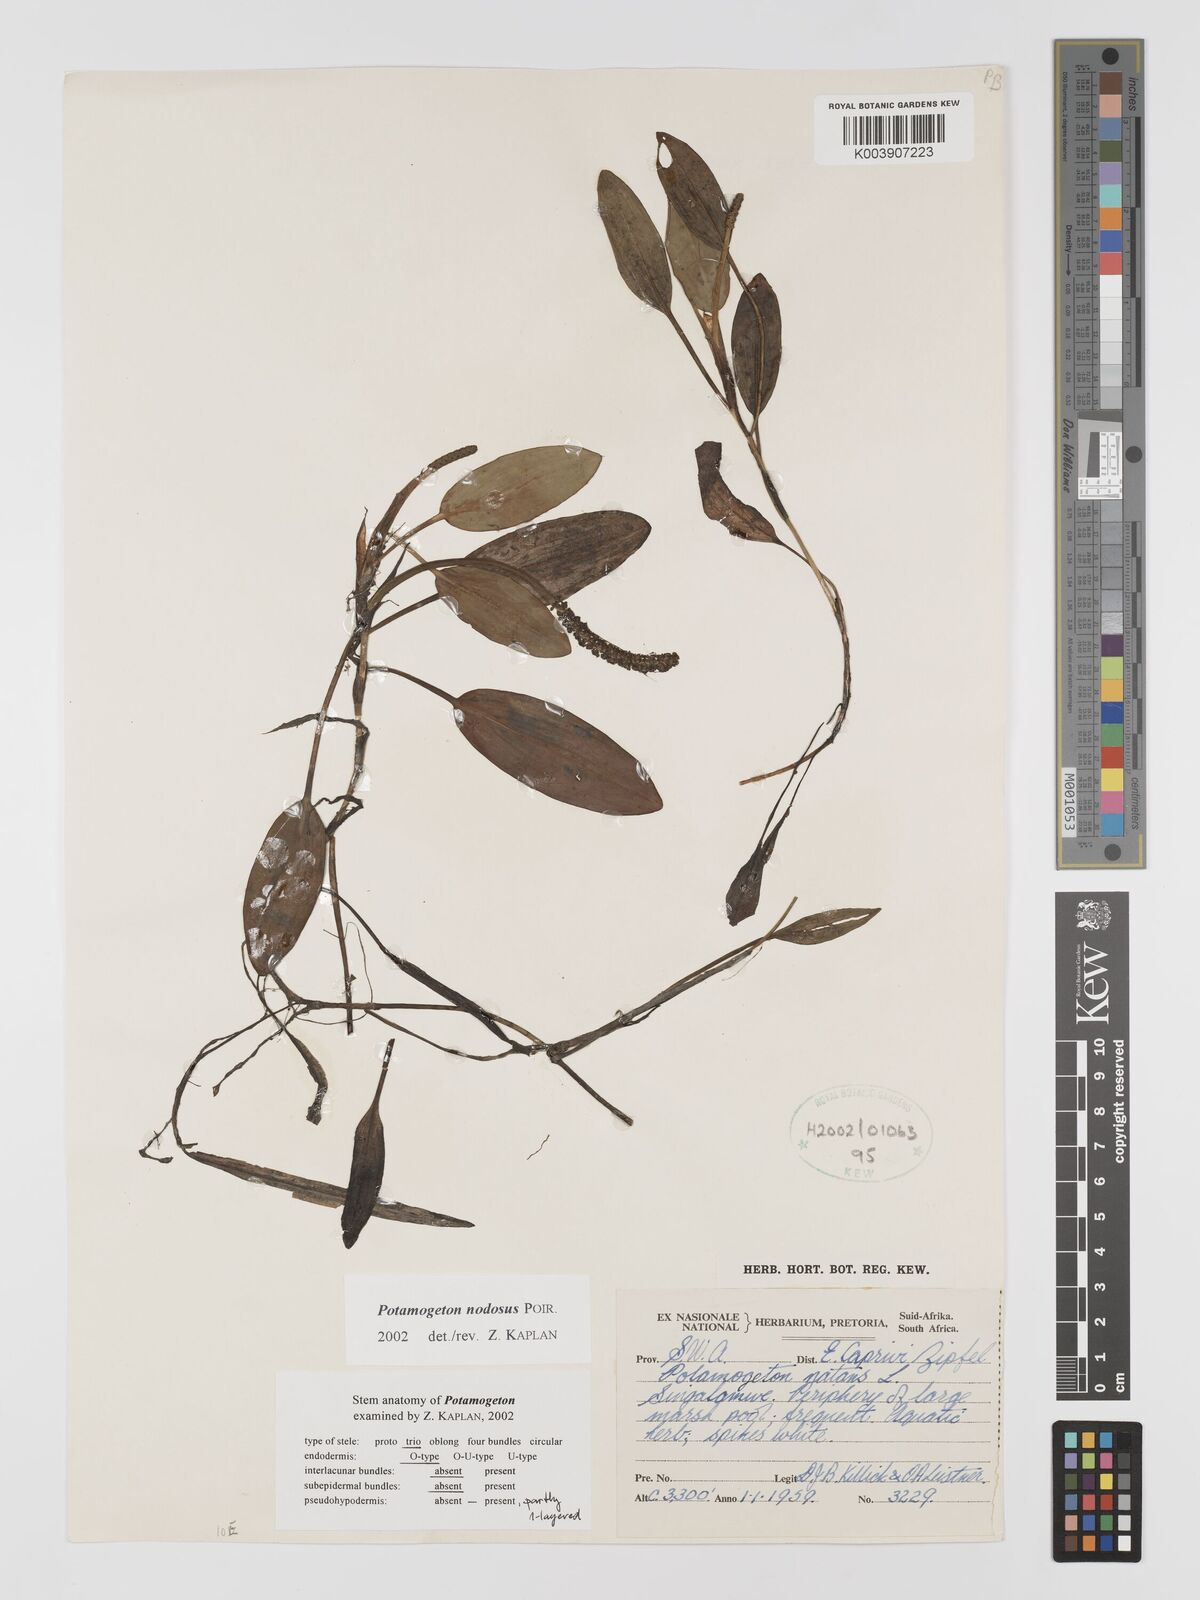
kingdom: Plantae
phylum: Tracheophyta
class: Liliopsida
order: Alismatales
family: Potamogetonaceae
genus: Potamogeton
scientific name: Potamogeton nodosus
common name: Loddon pondweed
